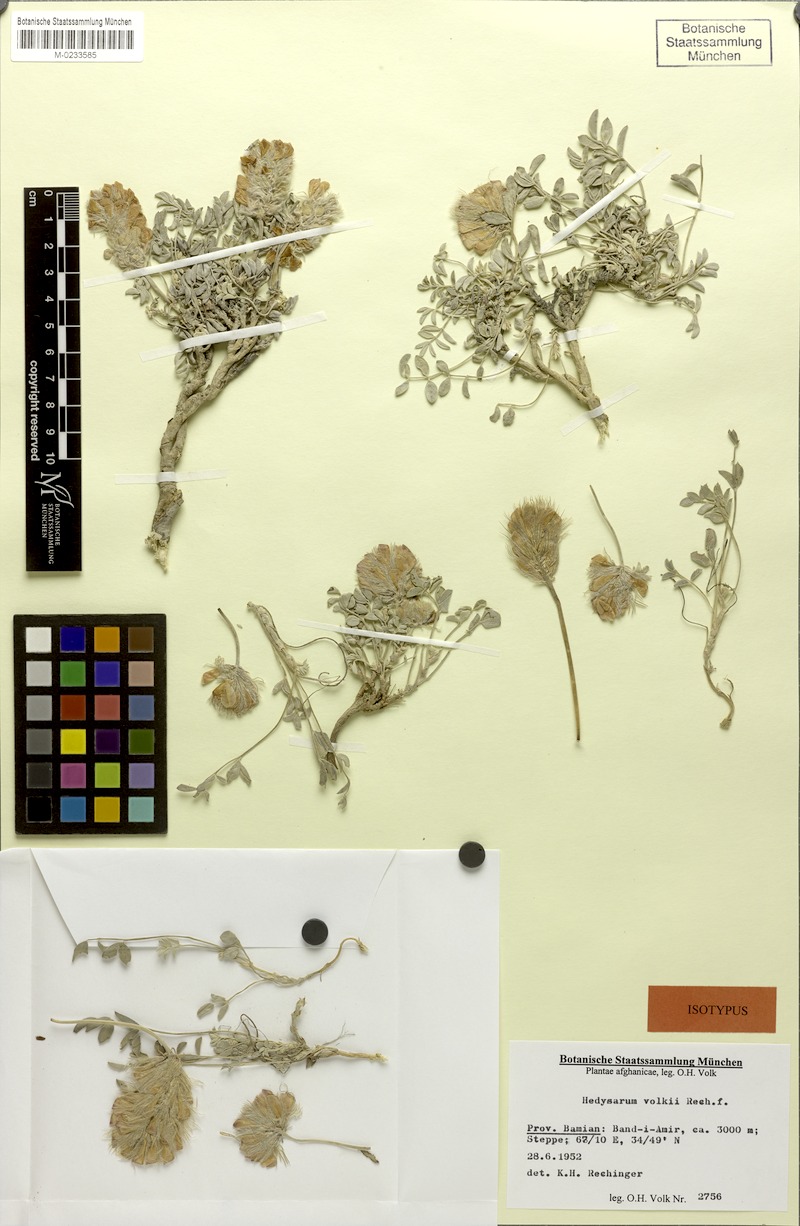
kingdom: Plantae
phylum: Tracheophyta
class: Magnoliopsida
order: Fabales
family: Fabaceae
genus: Hedysarum
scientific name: Hedysarum volkii
